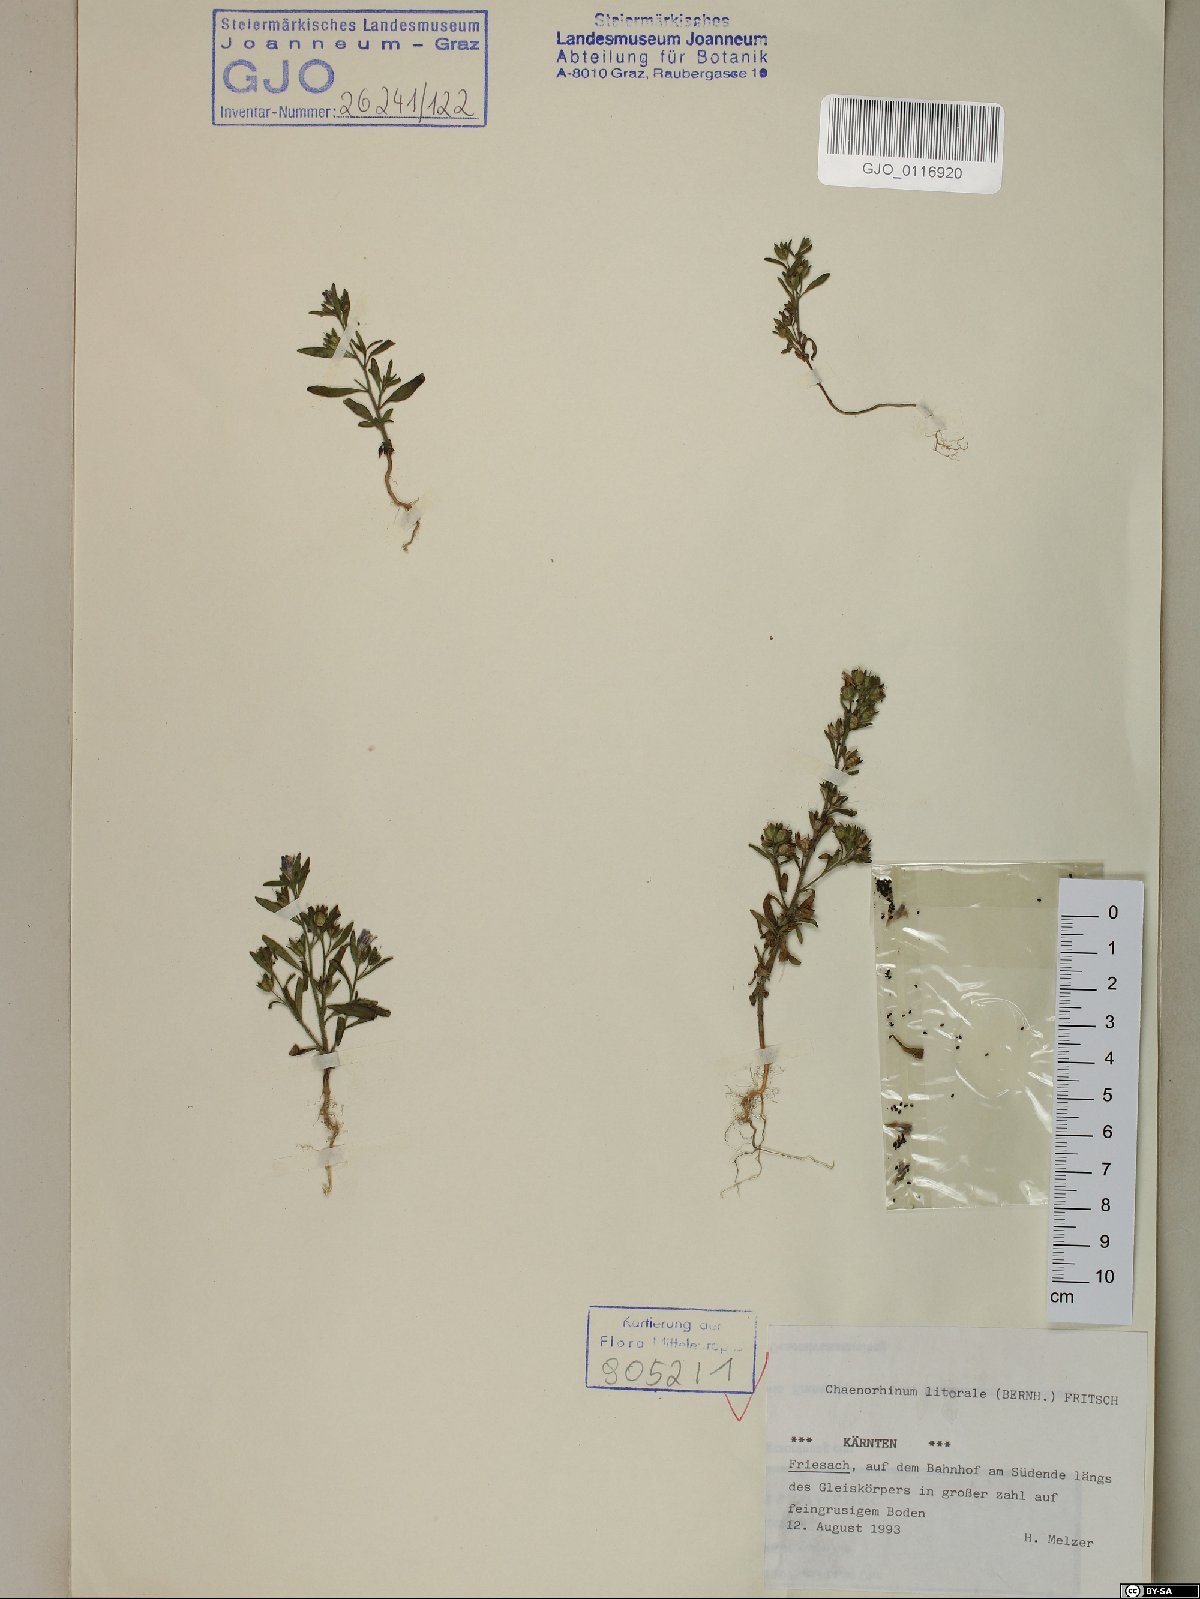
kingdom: Plantae
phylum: Tracheophyta
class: Magnoliopsida
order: Lamiales
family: Plantaginaceae
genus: Chaenorhinum
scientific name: Chaenorhinum litorale
